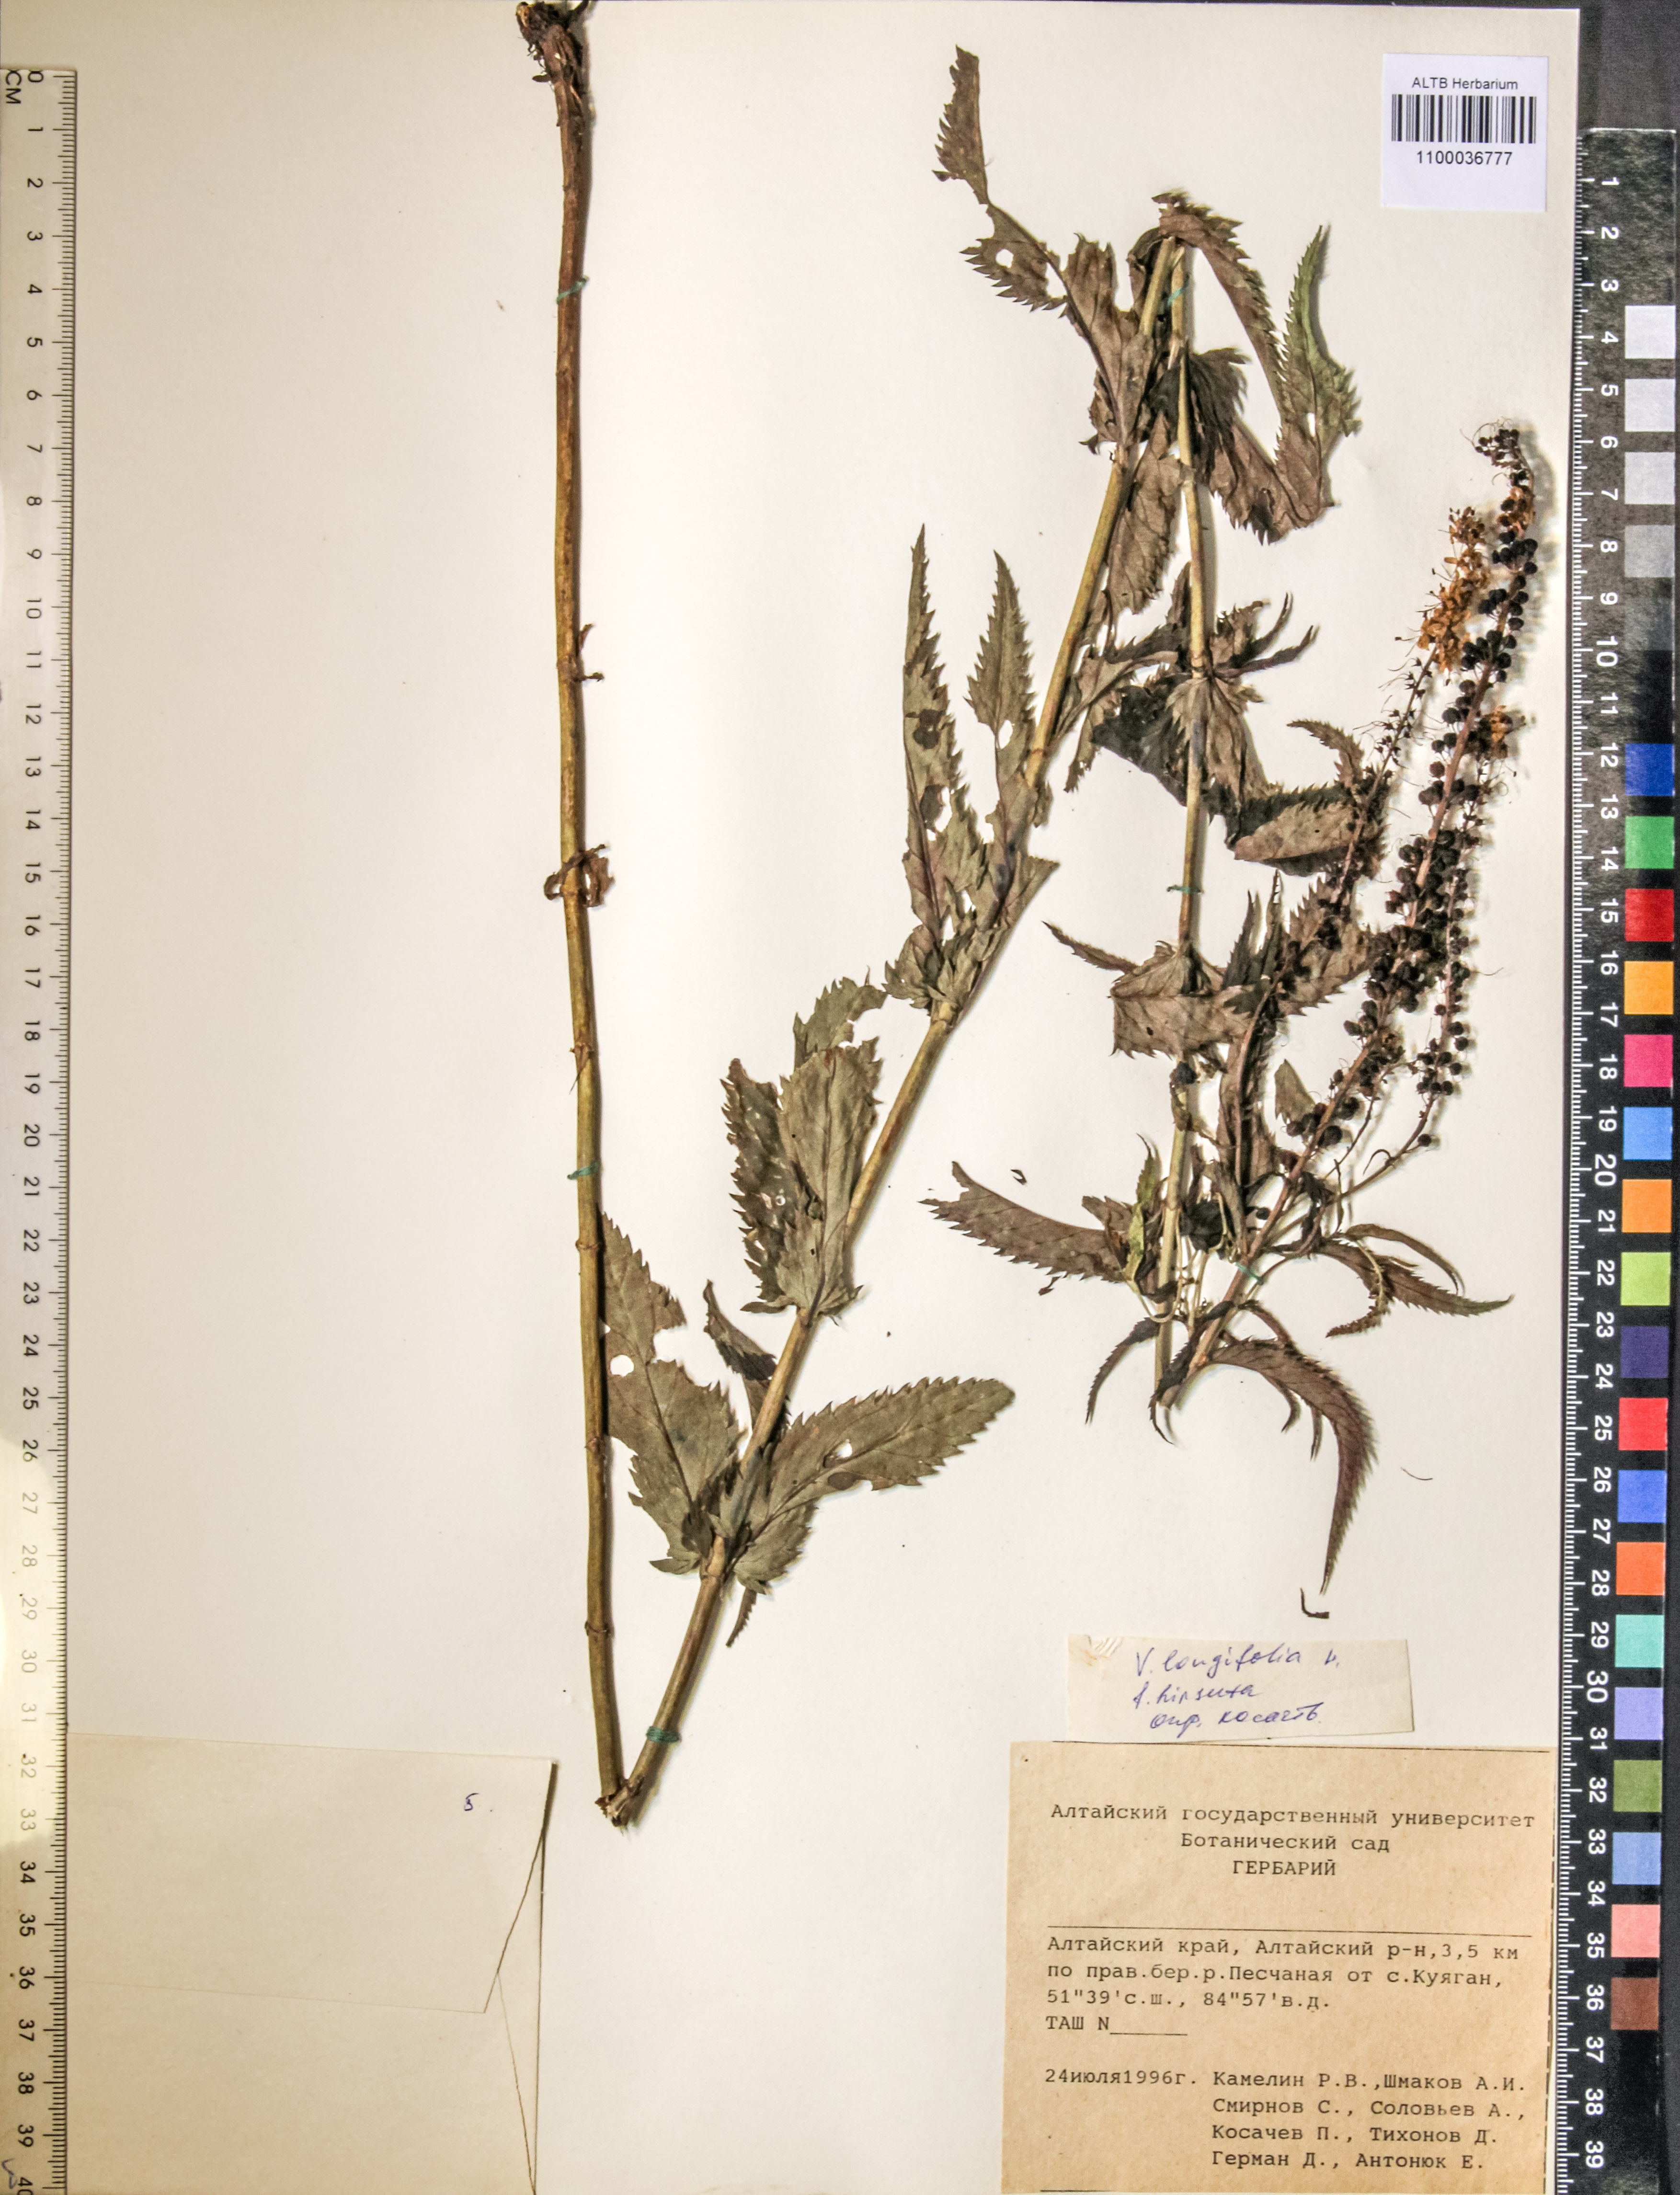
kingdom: Plantae
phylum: Tracheophyta
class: Magnoliopsida
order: Lamiales
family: Plantaginaceae
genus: Veronica
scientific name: Veronica longifolia
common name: Garden speedwell
